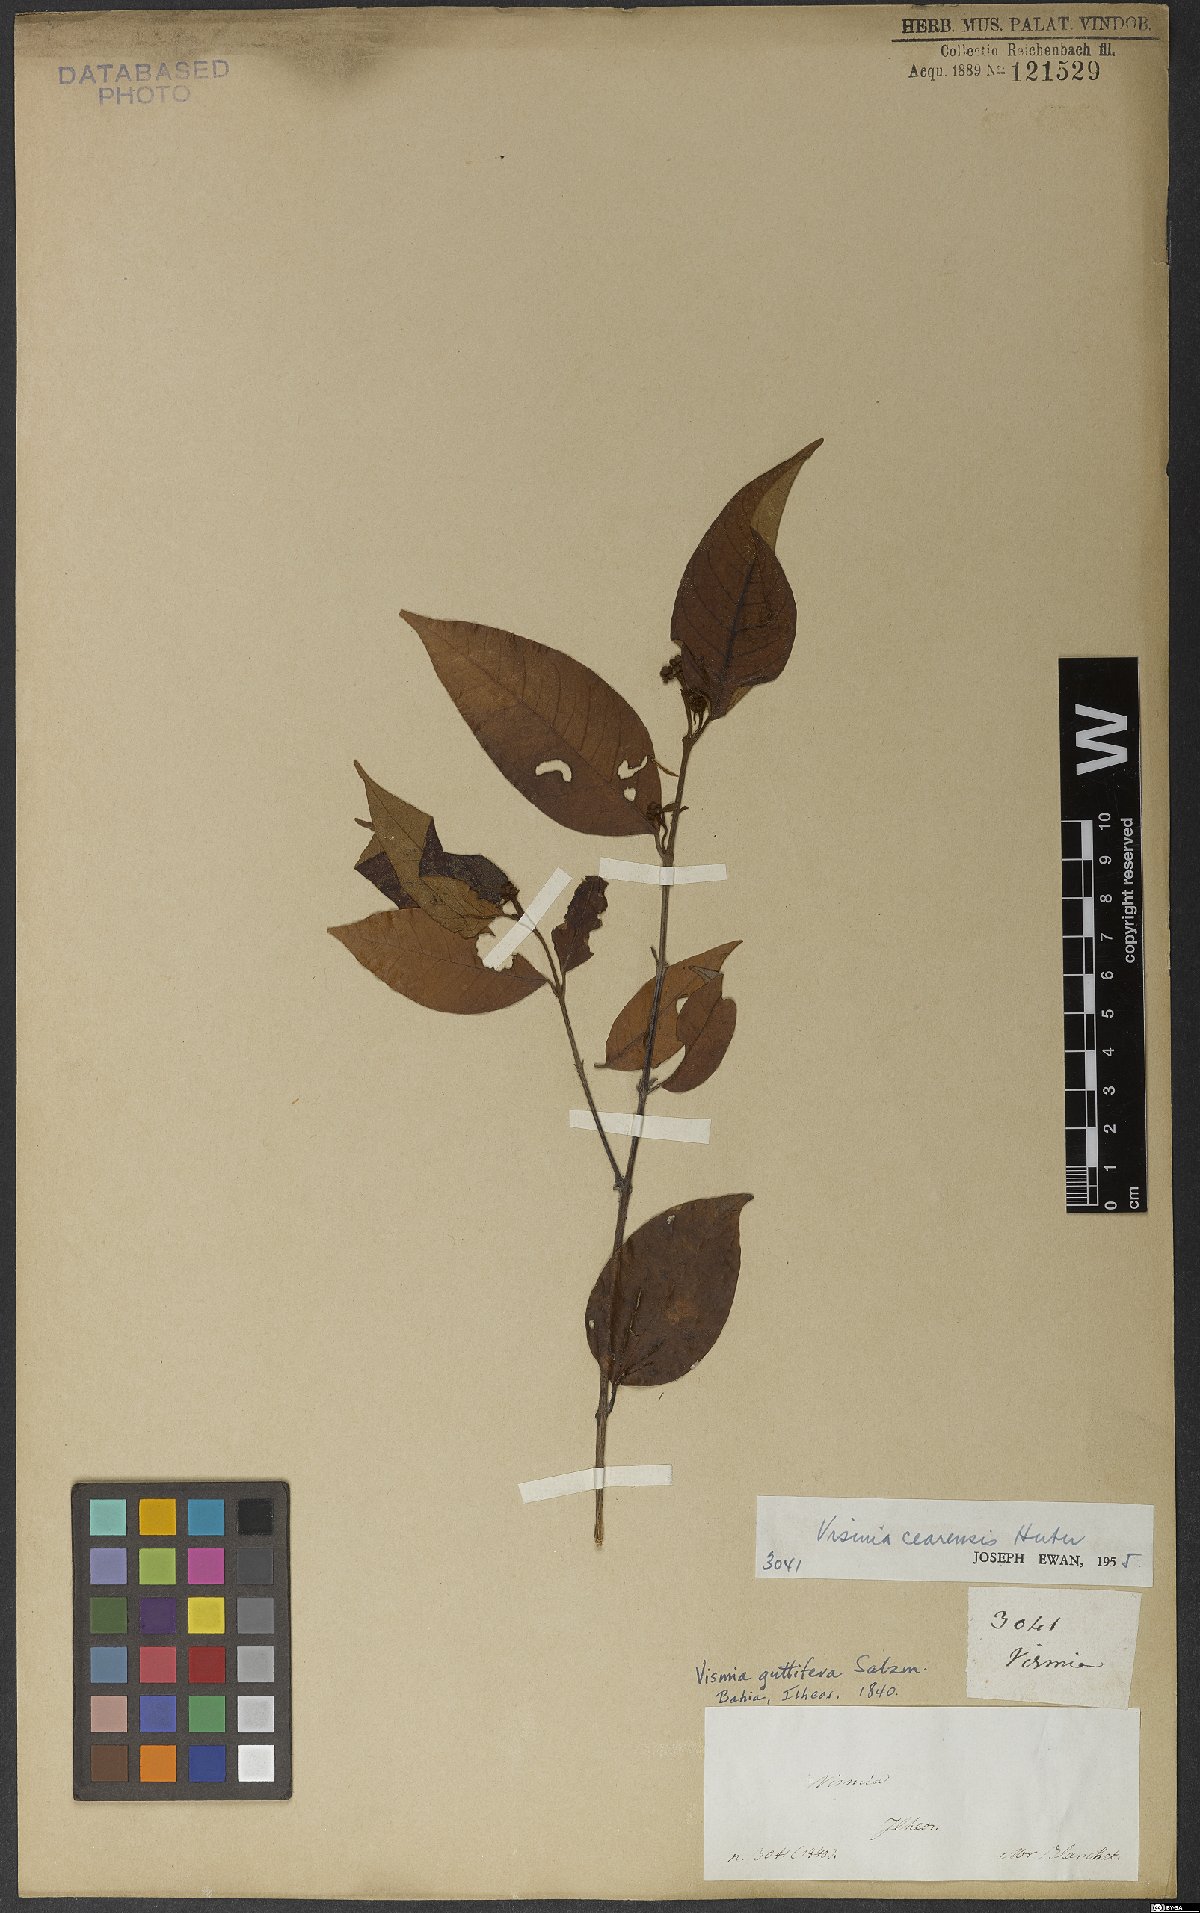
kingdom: Plantae
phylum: Tracheophyta
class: Magnoliopsida
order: Malpighiales
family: Hypericaceae
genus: Vismia
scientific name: Vismia guianensis
